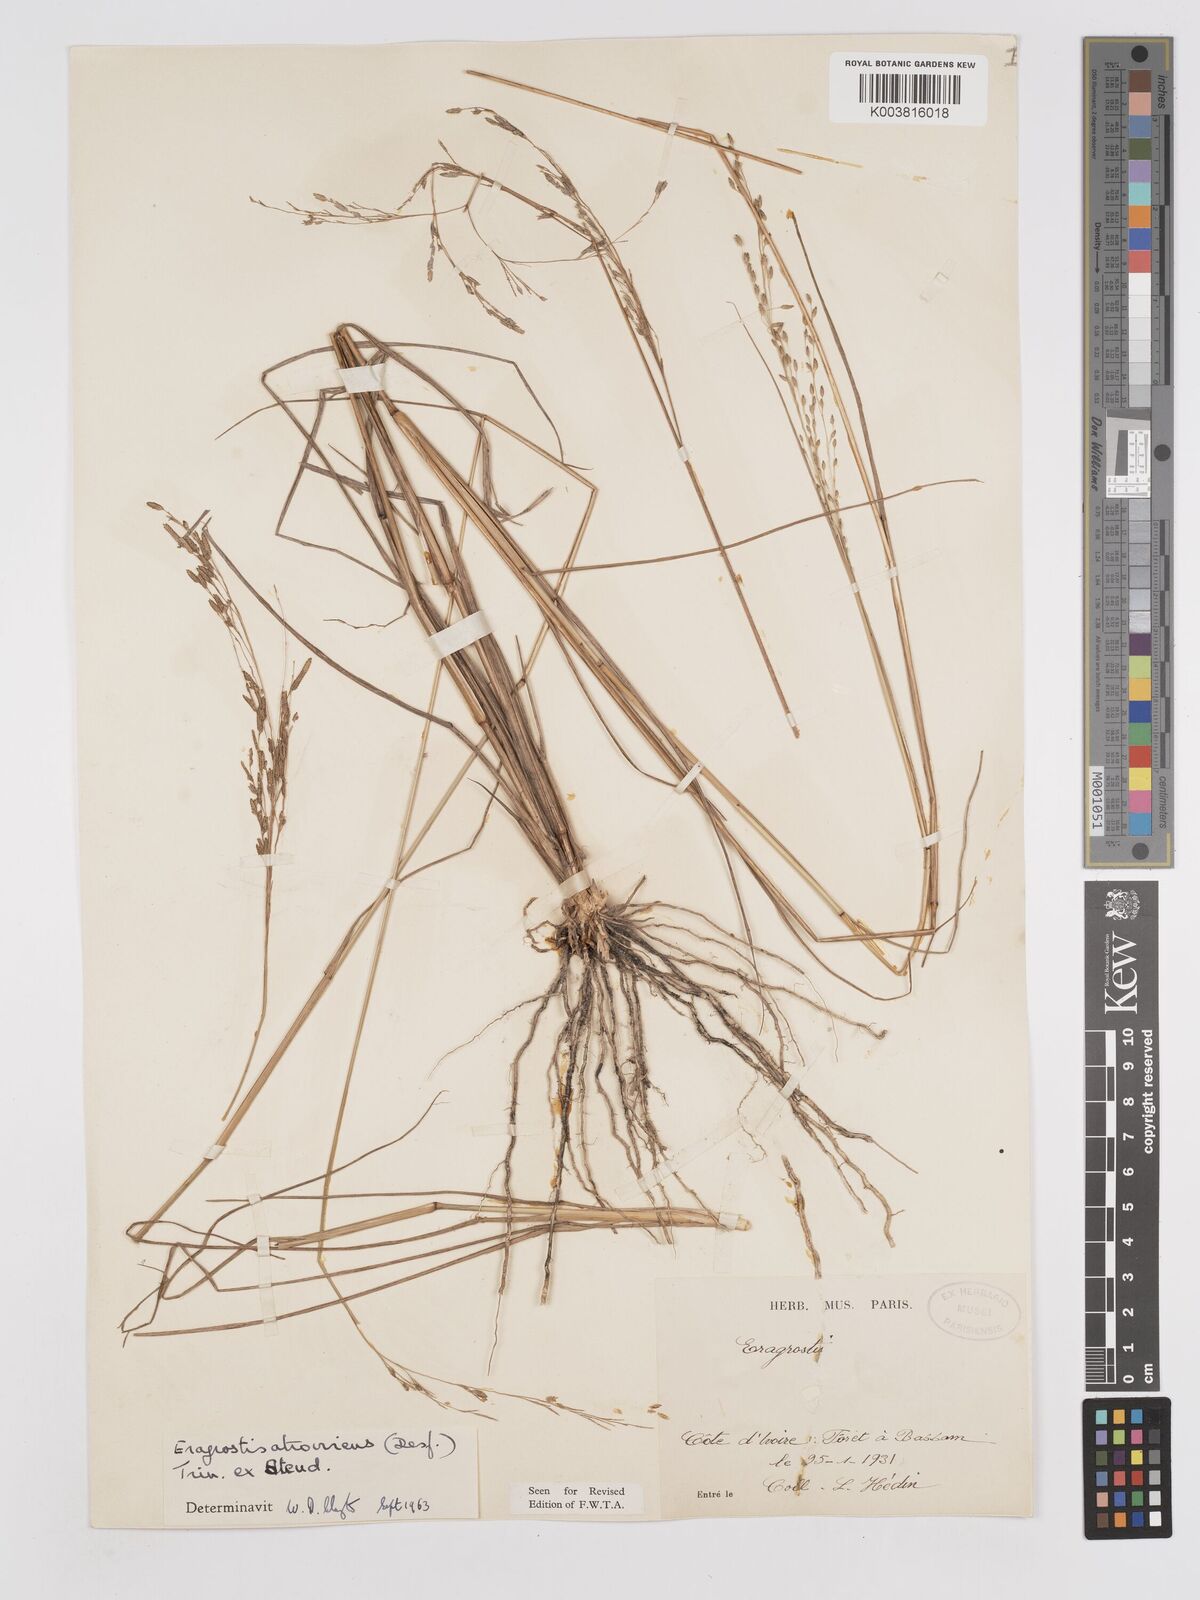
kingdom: Plantae
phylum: Tracheophyta
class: Liliopsida
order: Poales
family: Poaceae
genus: Eragrostis
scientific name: Eragrostis atrovirens
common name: Thalia lovegrass
